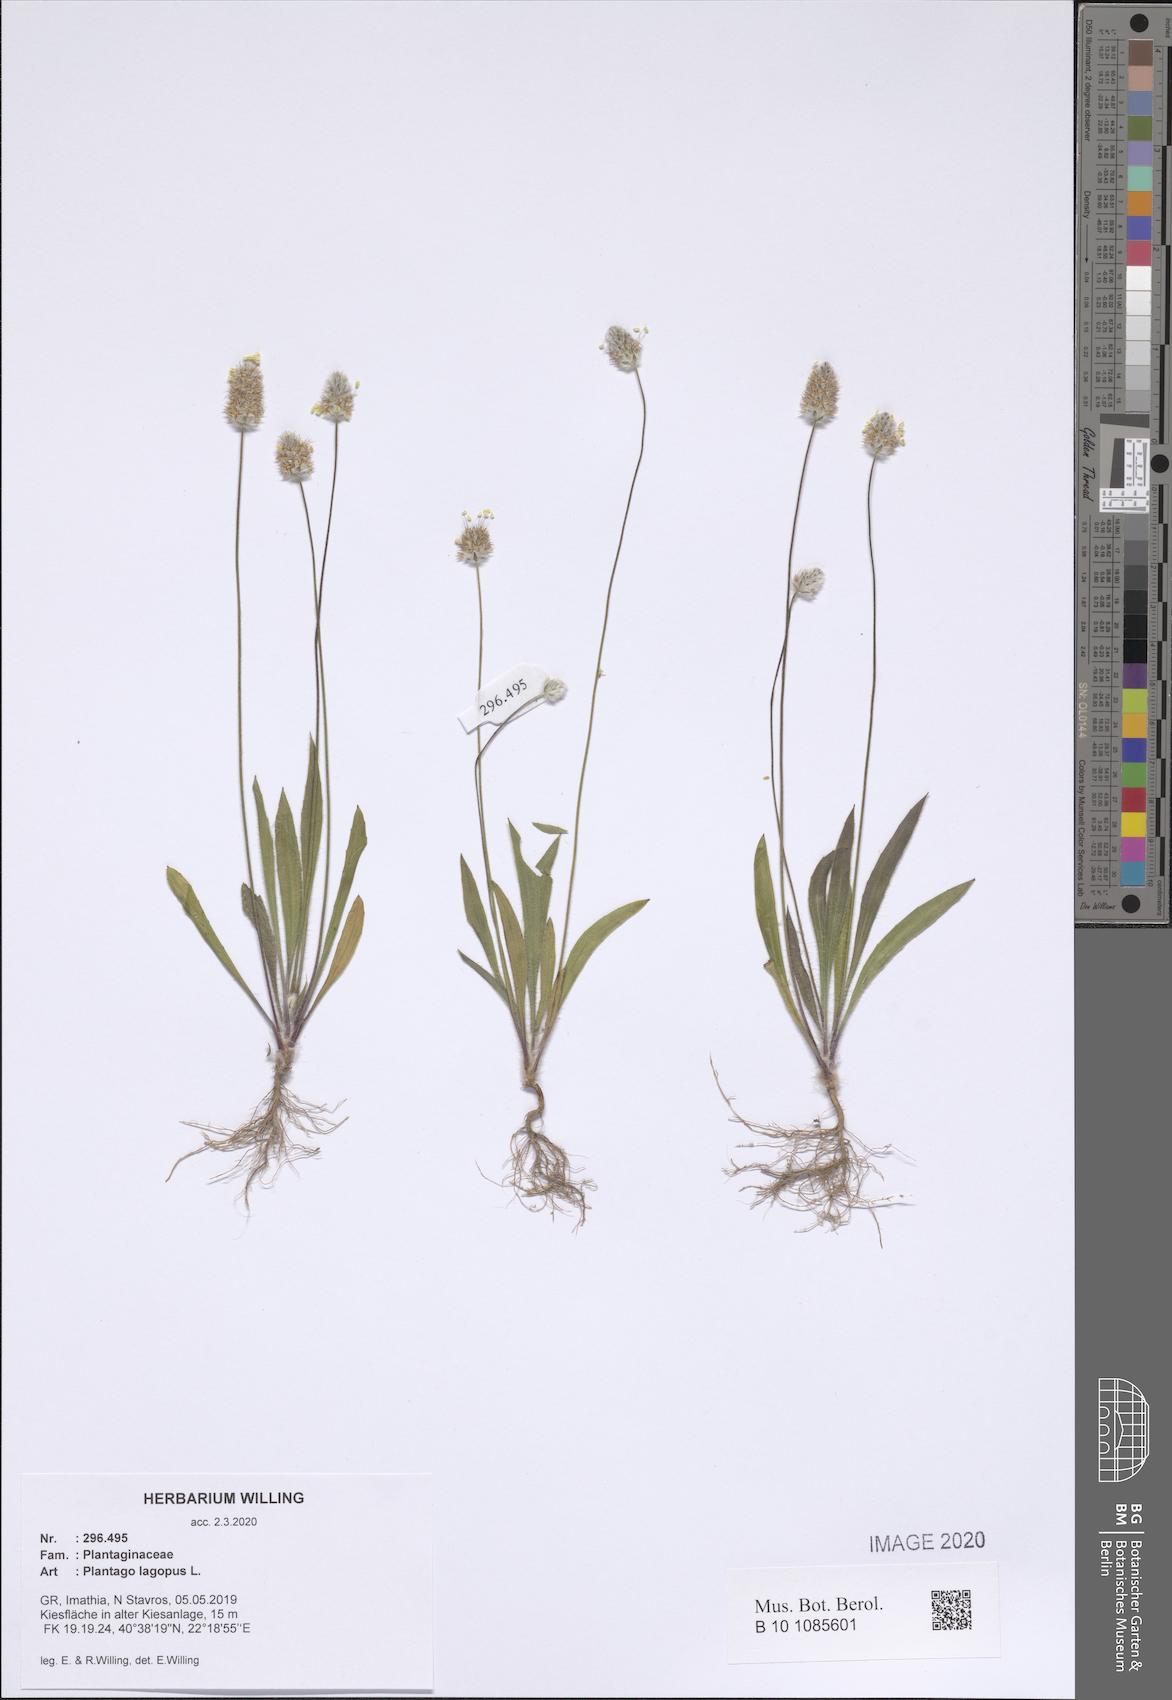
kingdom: Plantae
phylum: Tracheophyta
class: Magnoliopsida
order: Lamiales
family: Plantaginaceae
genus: Plantago
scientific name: Plantago lagopus
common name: Hare-foot plantain
